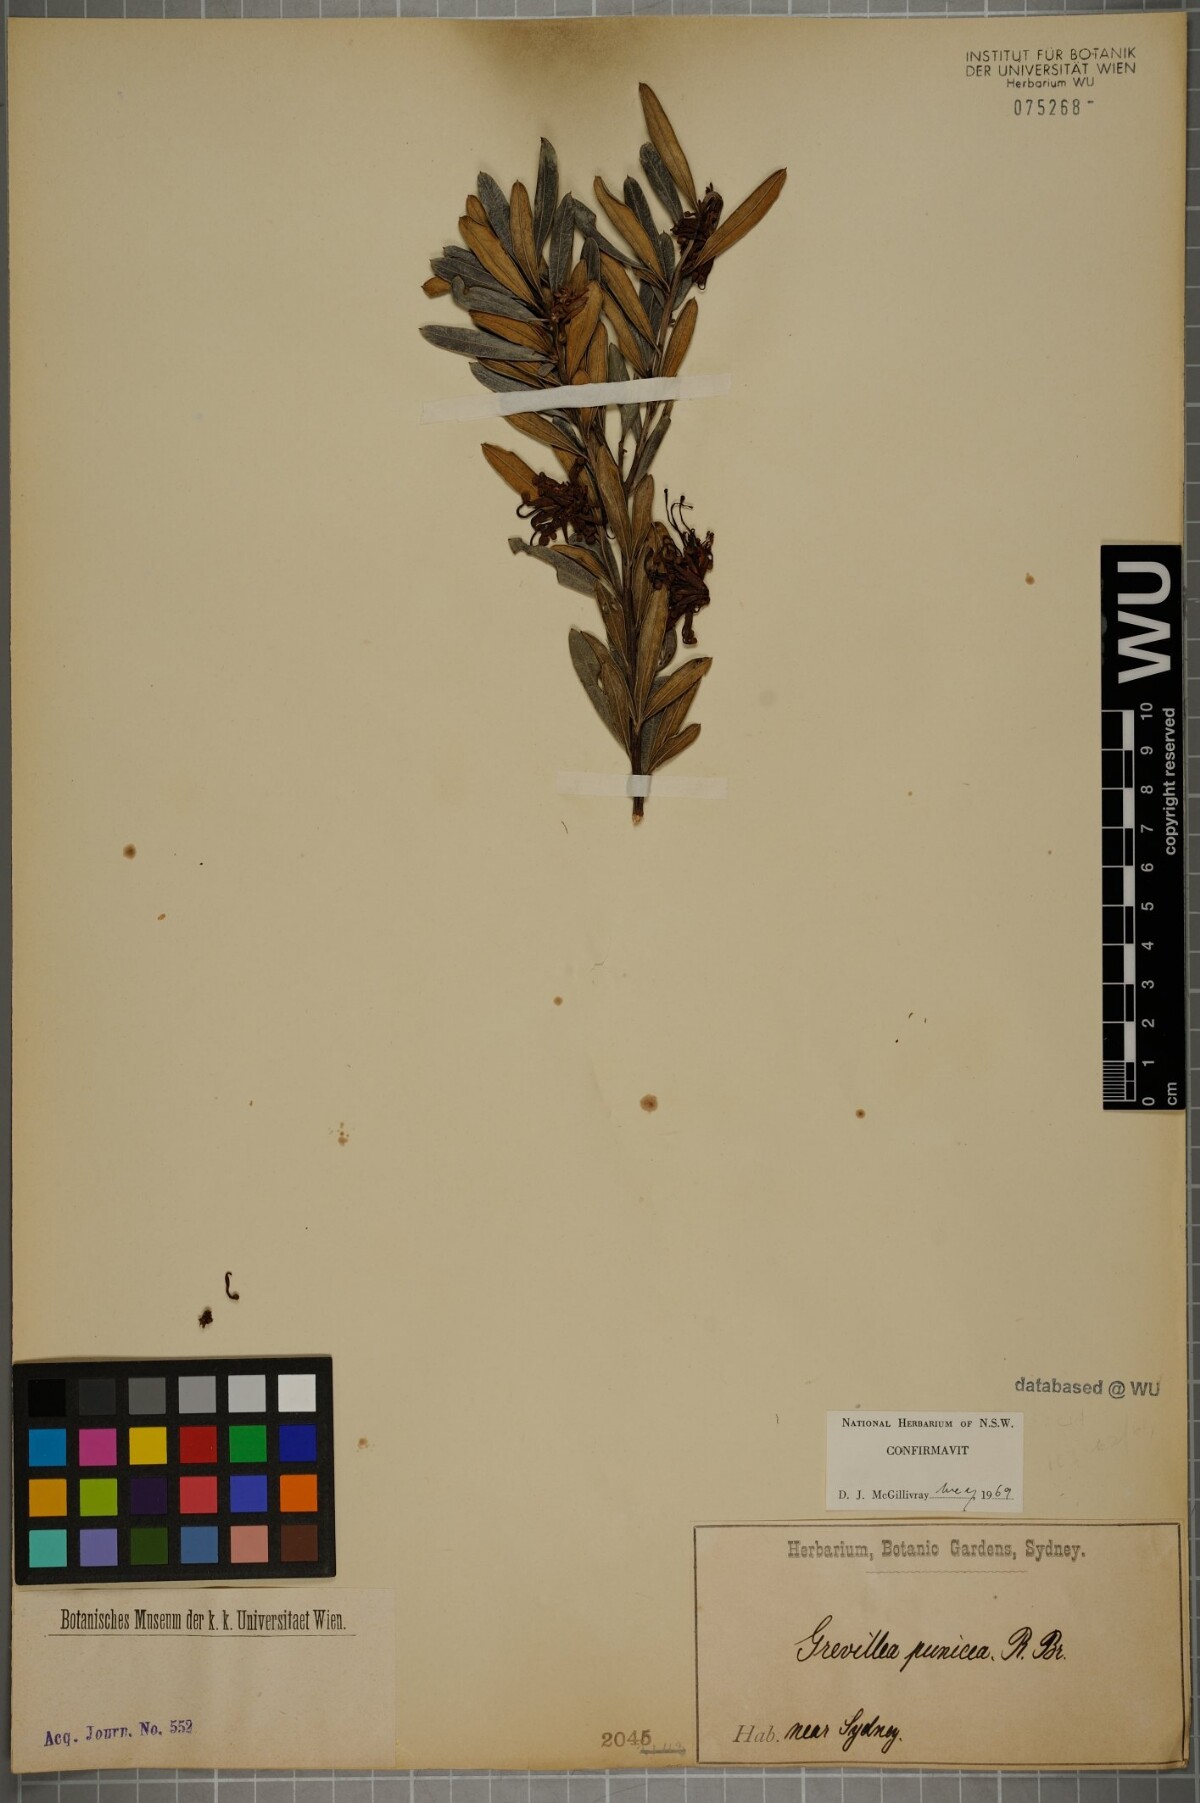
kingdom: Plantae
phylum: Tracheophyta
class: Magnoliopsida
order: Proteales
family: Proteaceae
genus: Grevillea
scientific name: Grevillea speciosa
